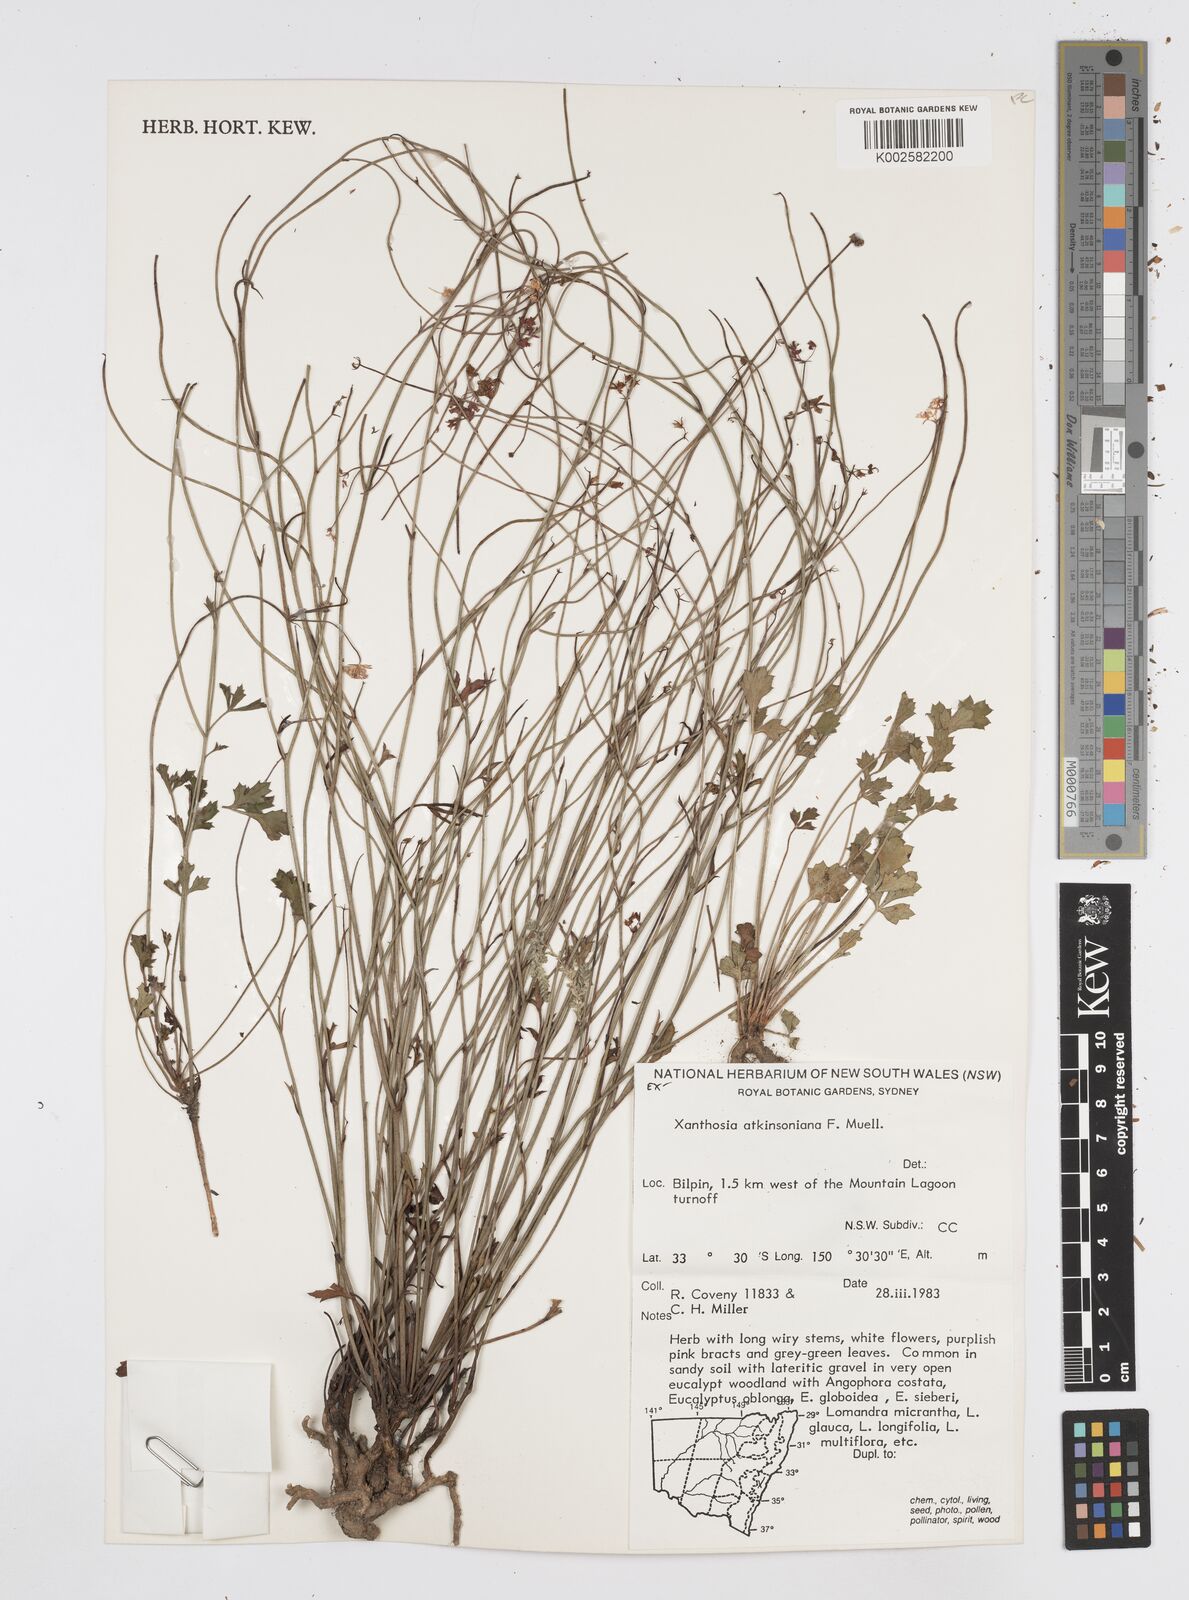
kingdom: Plantae
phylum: Tracheophyta
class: Magnoliopsida
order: Apiales
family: Apiaceae
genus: Xanthosia
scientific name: Xanthosia atkinsoniana
